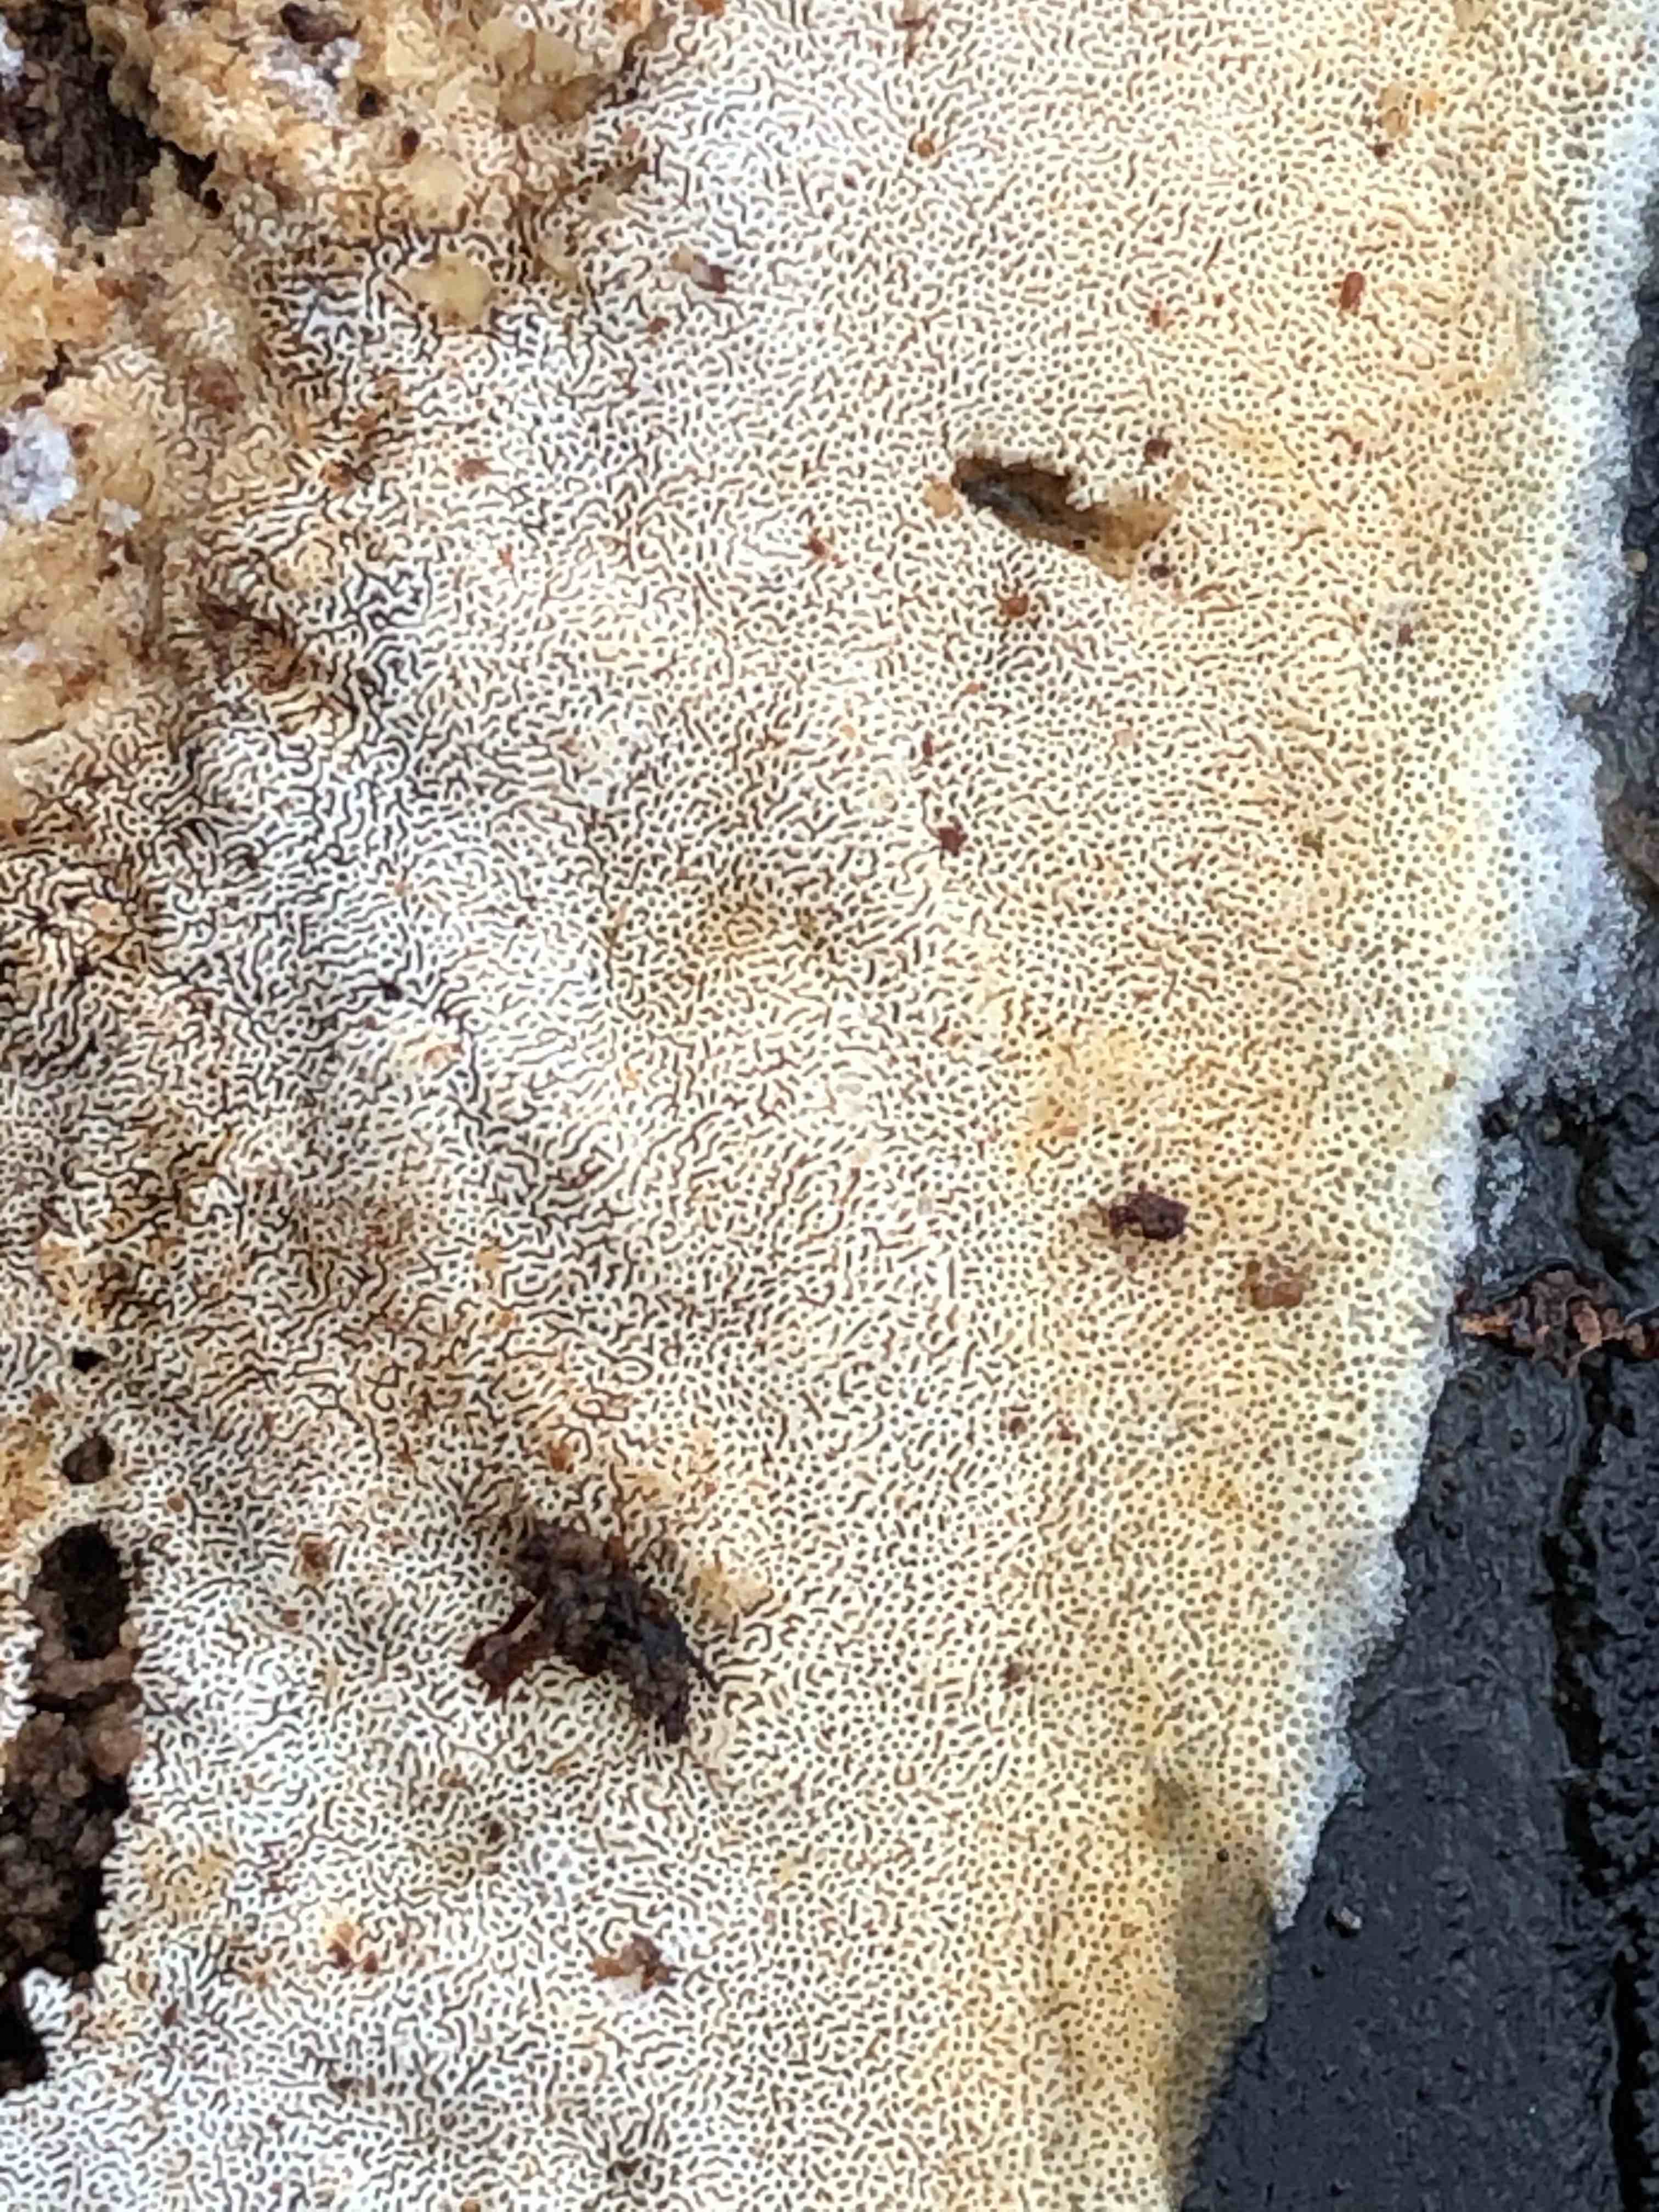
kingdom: Fungi
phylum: Basidiomycota
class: Agaricomycetes
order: Hymenochaetales
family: Schizoporaceae
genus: Xylodon
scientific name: Xylodon subtropicus
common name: labyrint-tandsvamp
